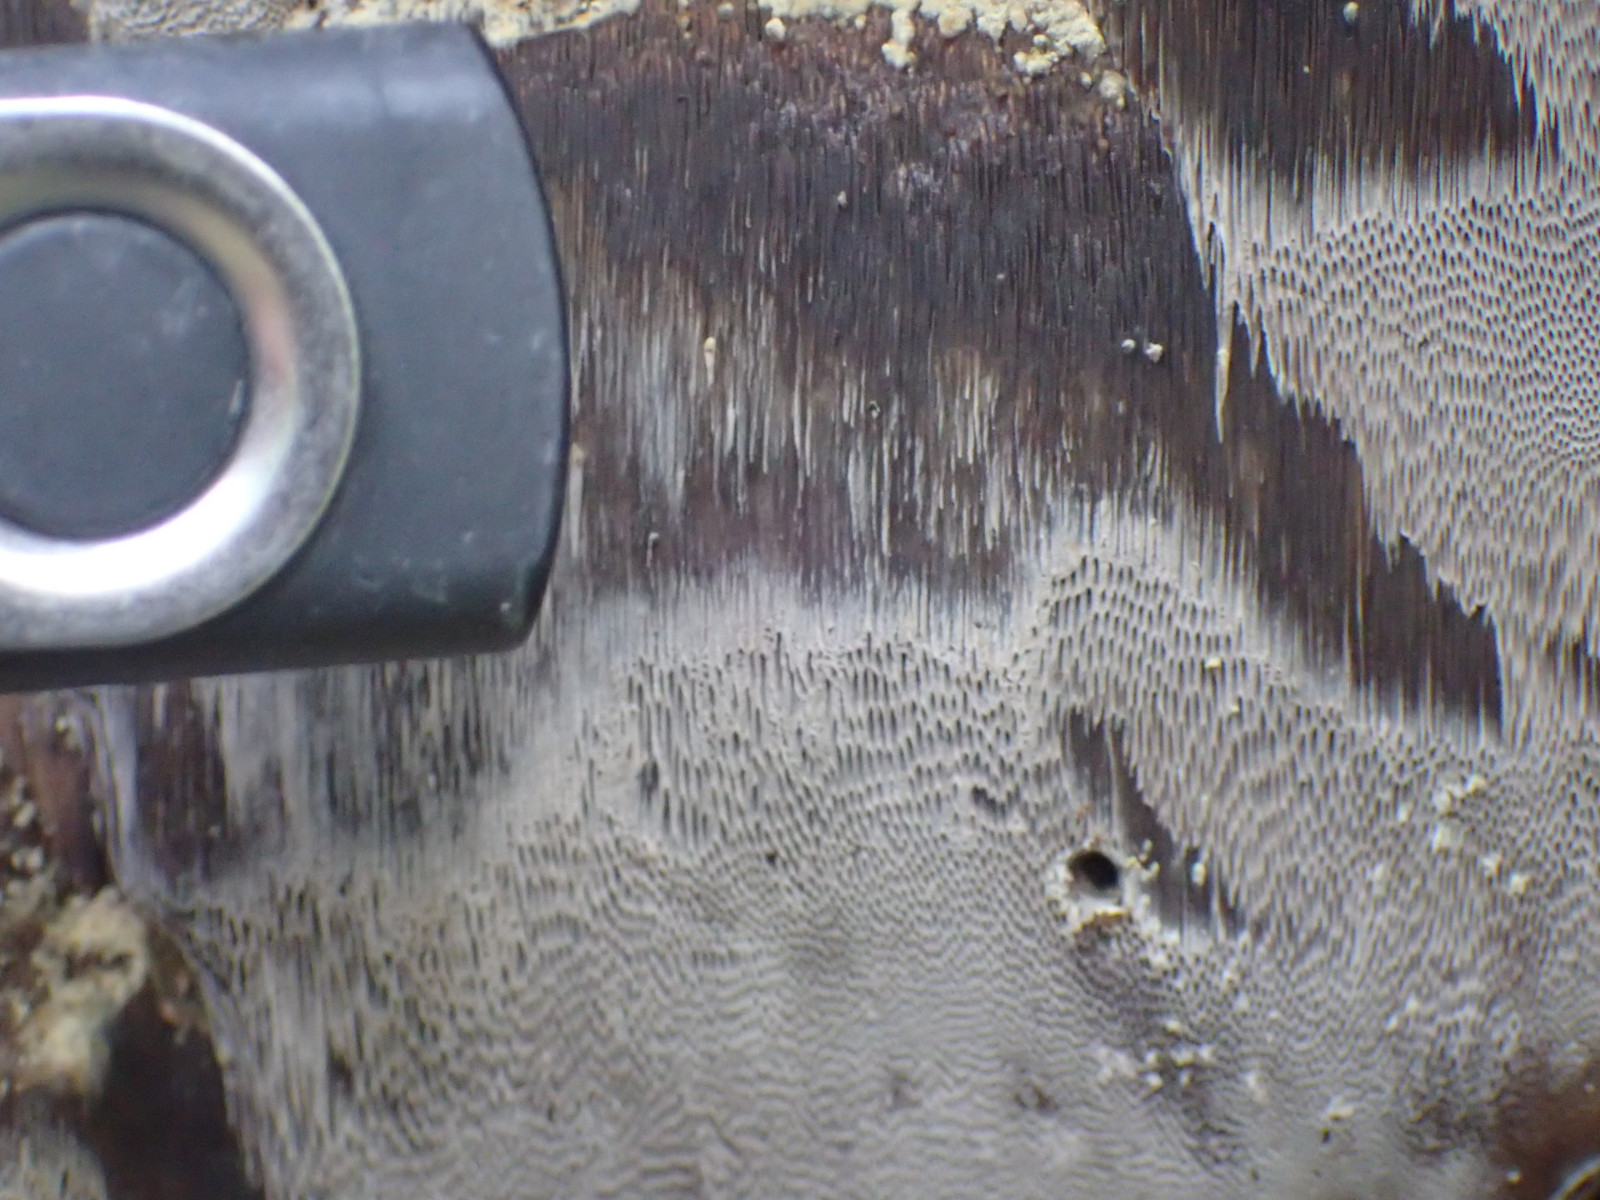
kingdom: Fungi
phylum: Basidiomycota
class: Agaricomycetes
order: Hymenochaetales
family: Hymenochaetaceae
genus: Inonotus
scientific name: Inonotus obliquus
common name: birke-spejlporesvamp
